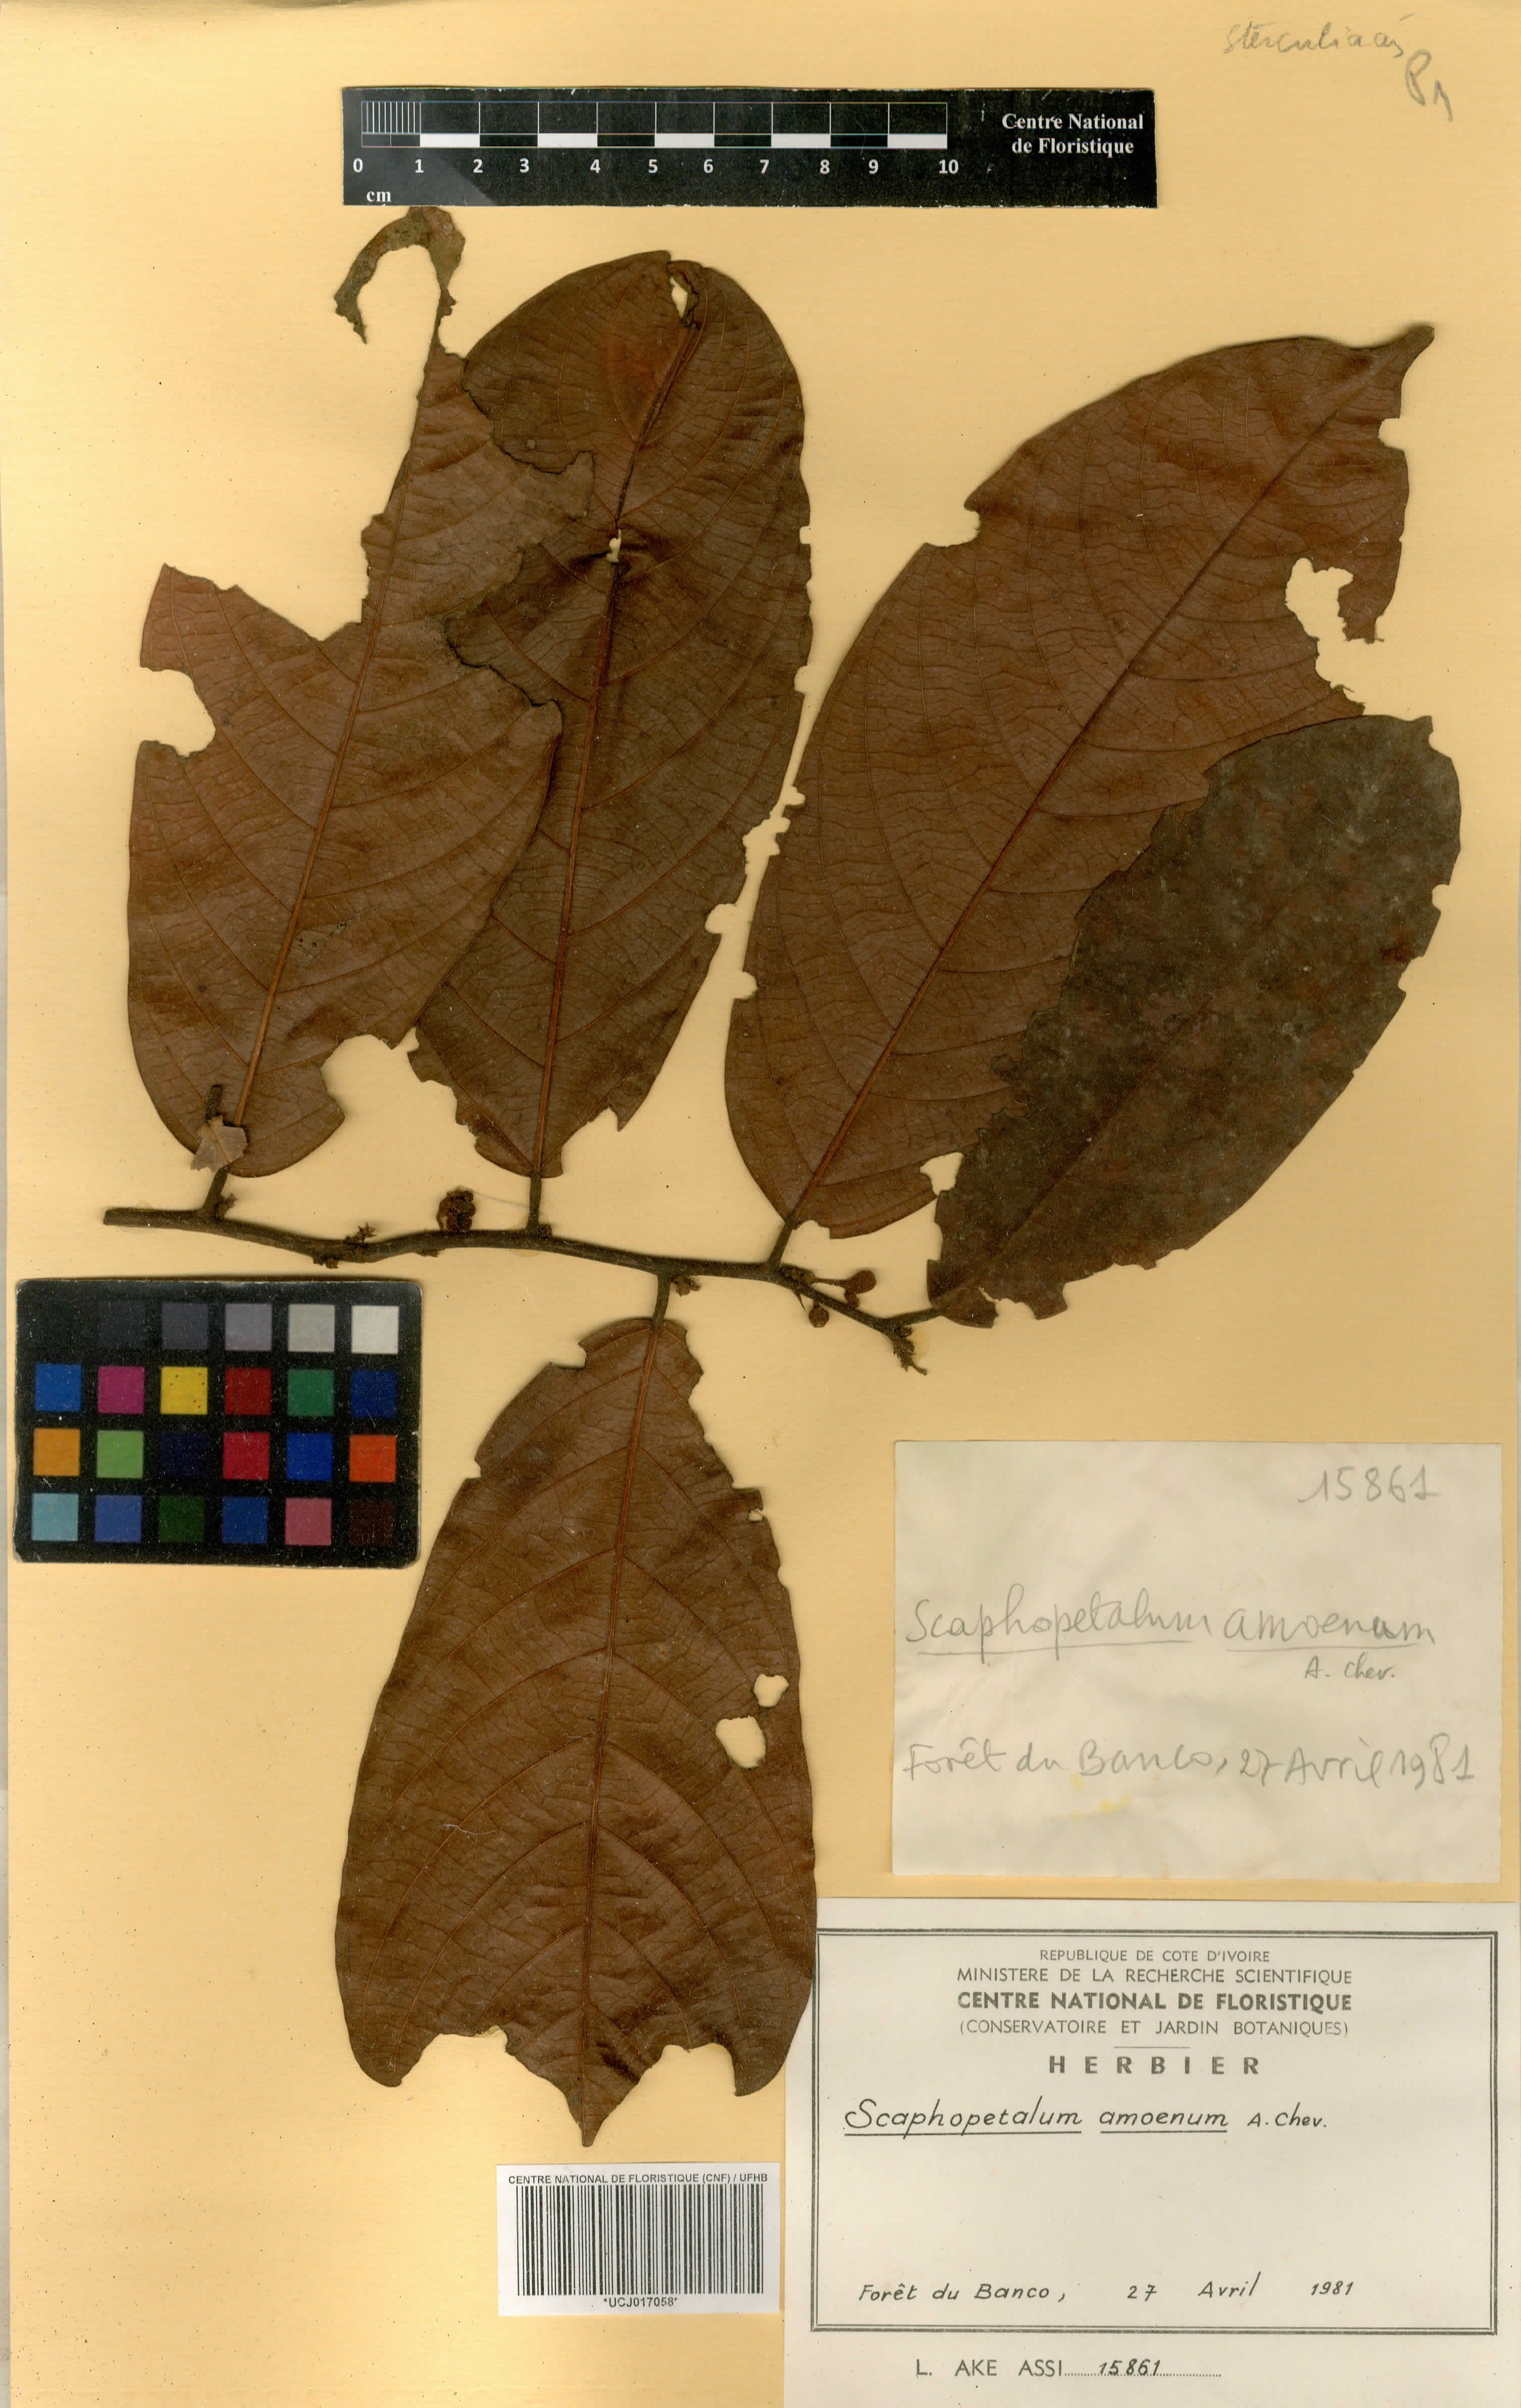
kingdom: Plantae
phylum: Tracheophyta
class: Magnoliopsida
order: Malvales
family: Malvaceae
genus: Scaphopetalum
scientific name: Scaphopetalum amoenum
